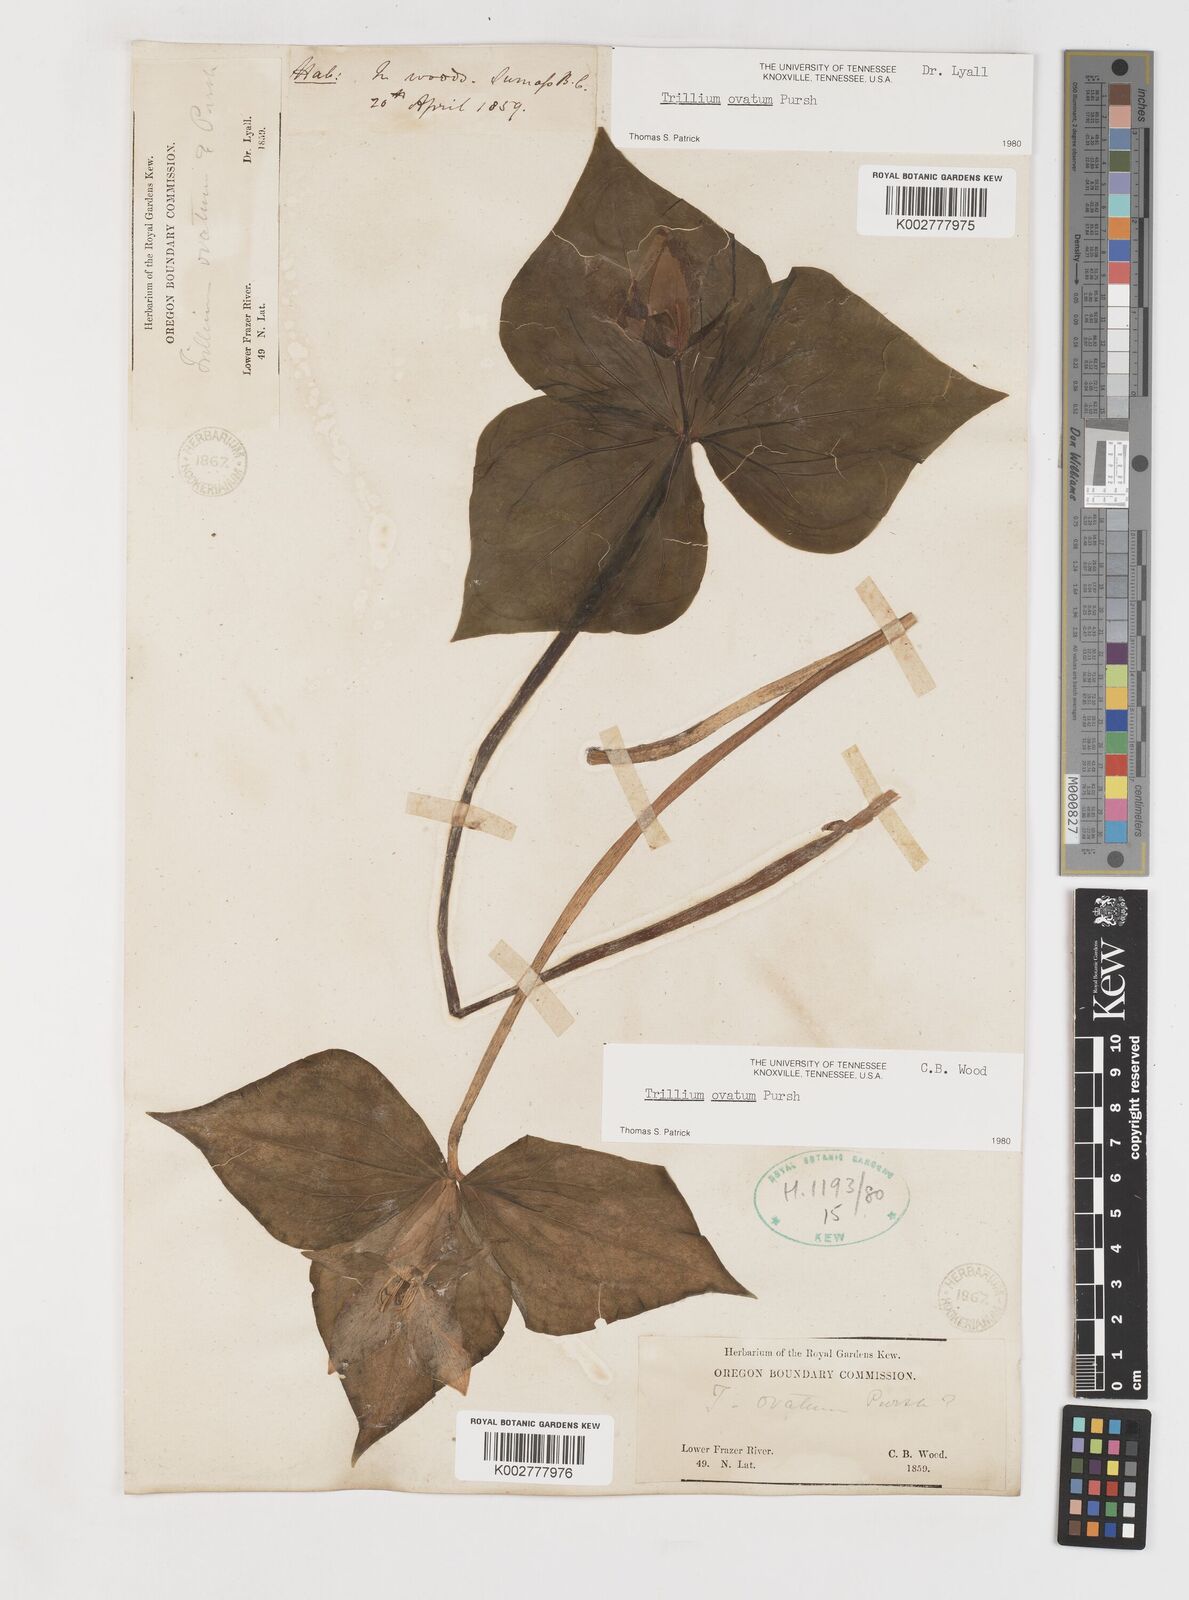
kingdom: Plantae
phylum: Tracheophyta
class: Liliopsida
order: Liliales
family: Melanthiaceae
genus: Trillium
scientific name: Trillium ovatum
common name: Pacific trillium
